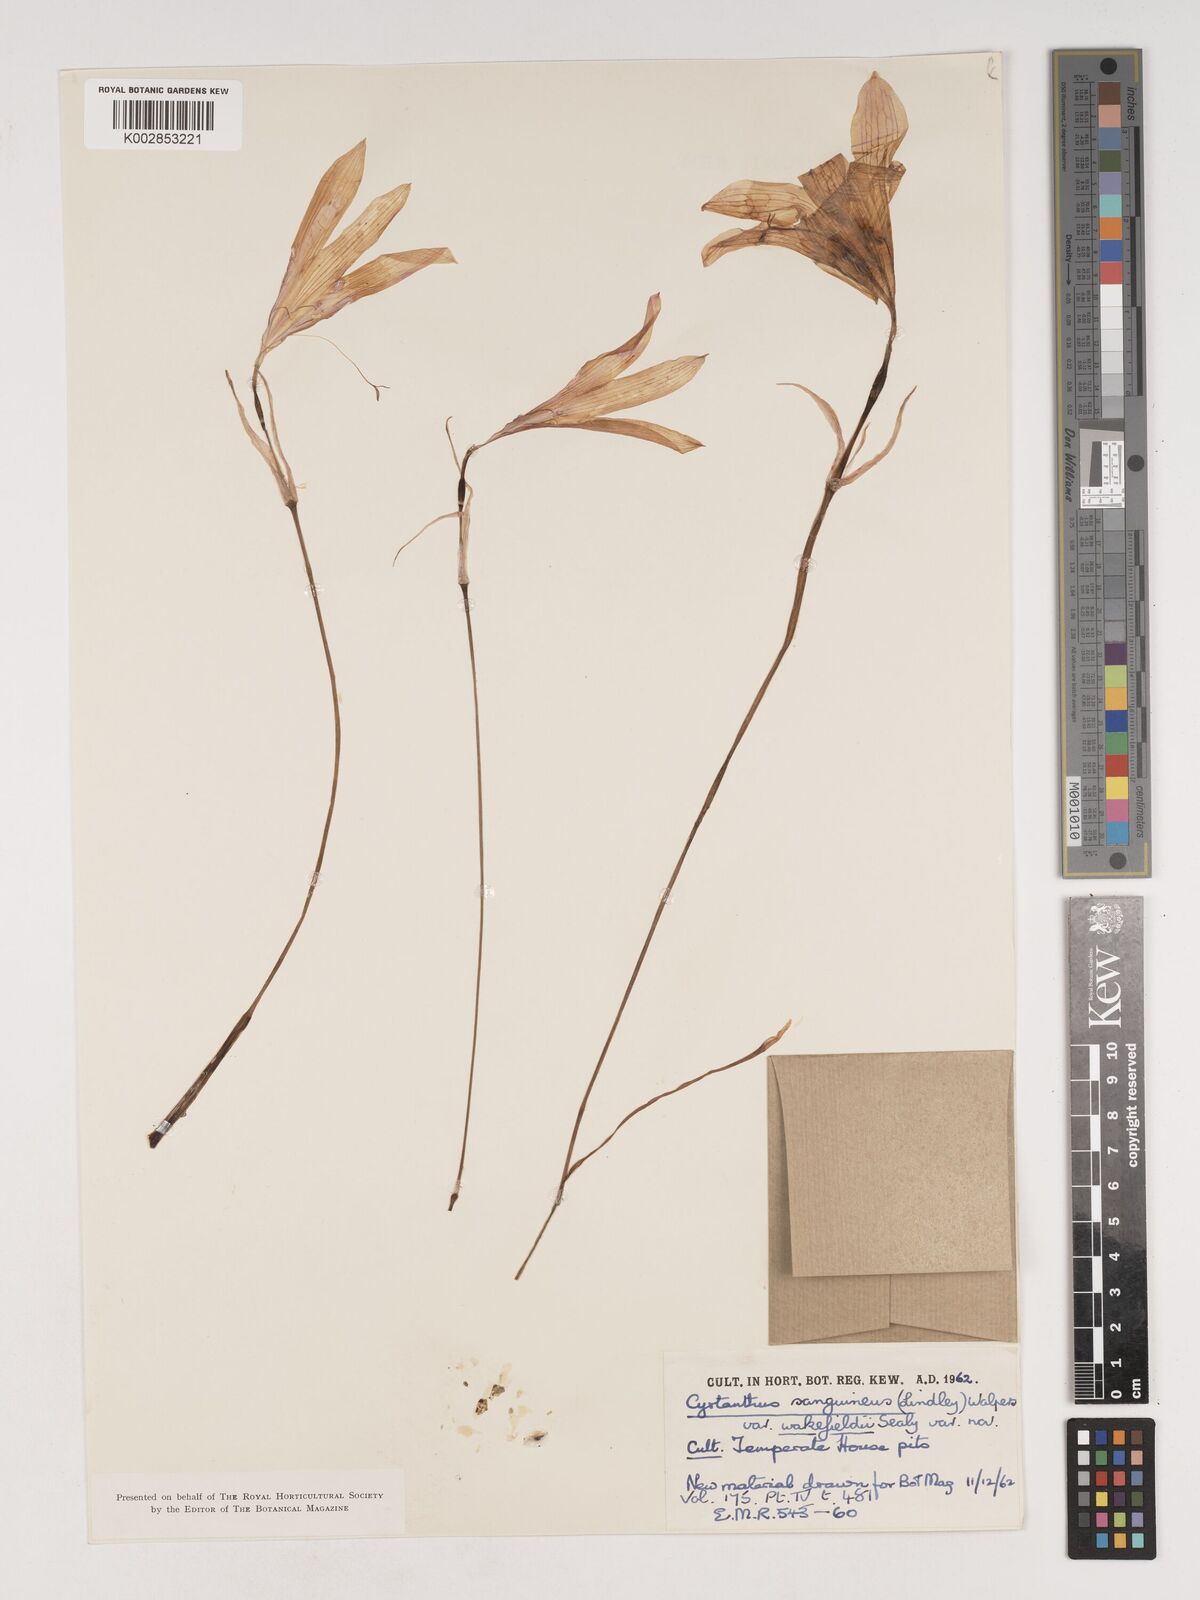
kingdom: Plantae
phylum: Tracheophyta
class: Liliopsida
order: Asparagales
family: Amaryllidaceae
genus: Cyrtanthus
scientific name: Cyrtanthus sanguineus
